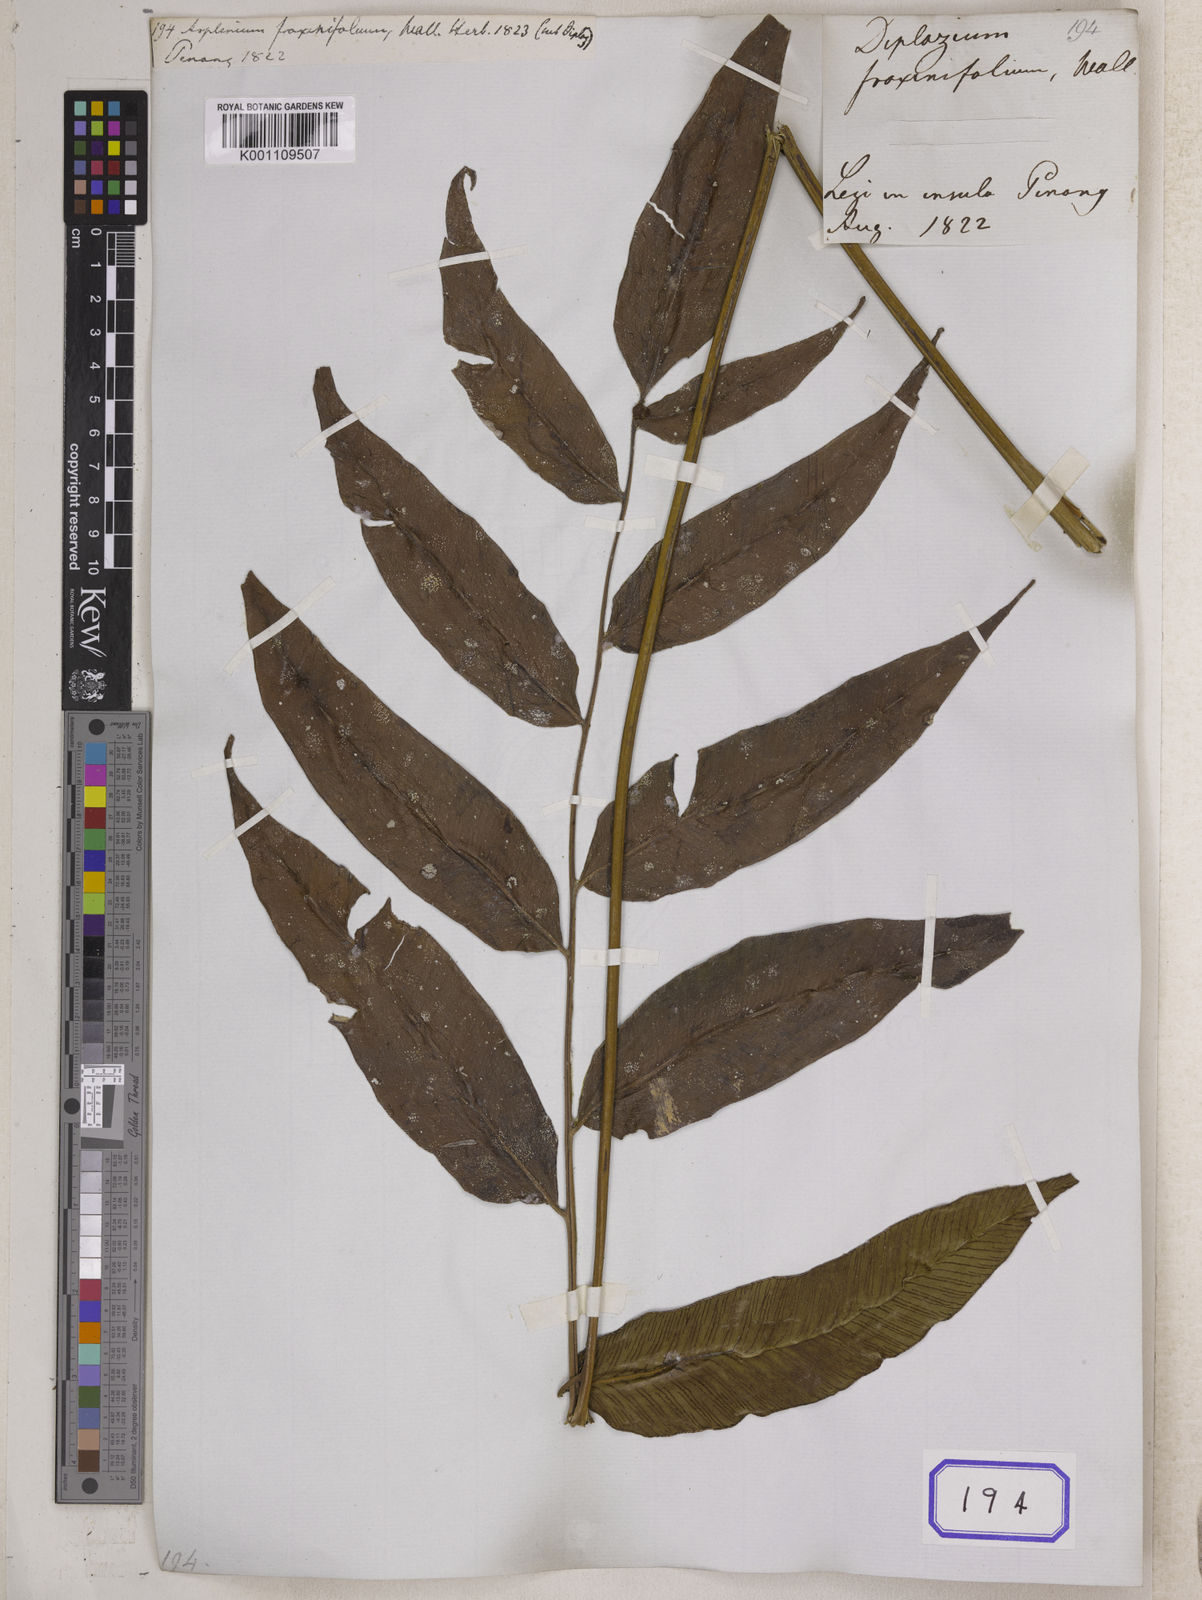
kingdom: Plantae
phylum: Tracheophyta
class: Polypodiopsida
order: Polypodiales
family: Athyriaceae
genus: Diplazium
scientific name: Diplazium lineolatum
